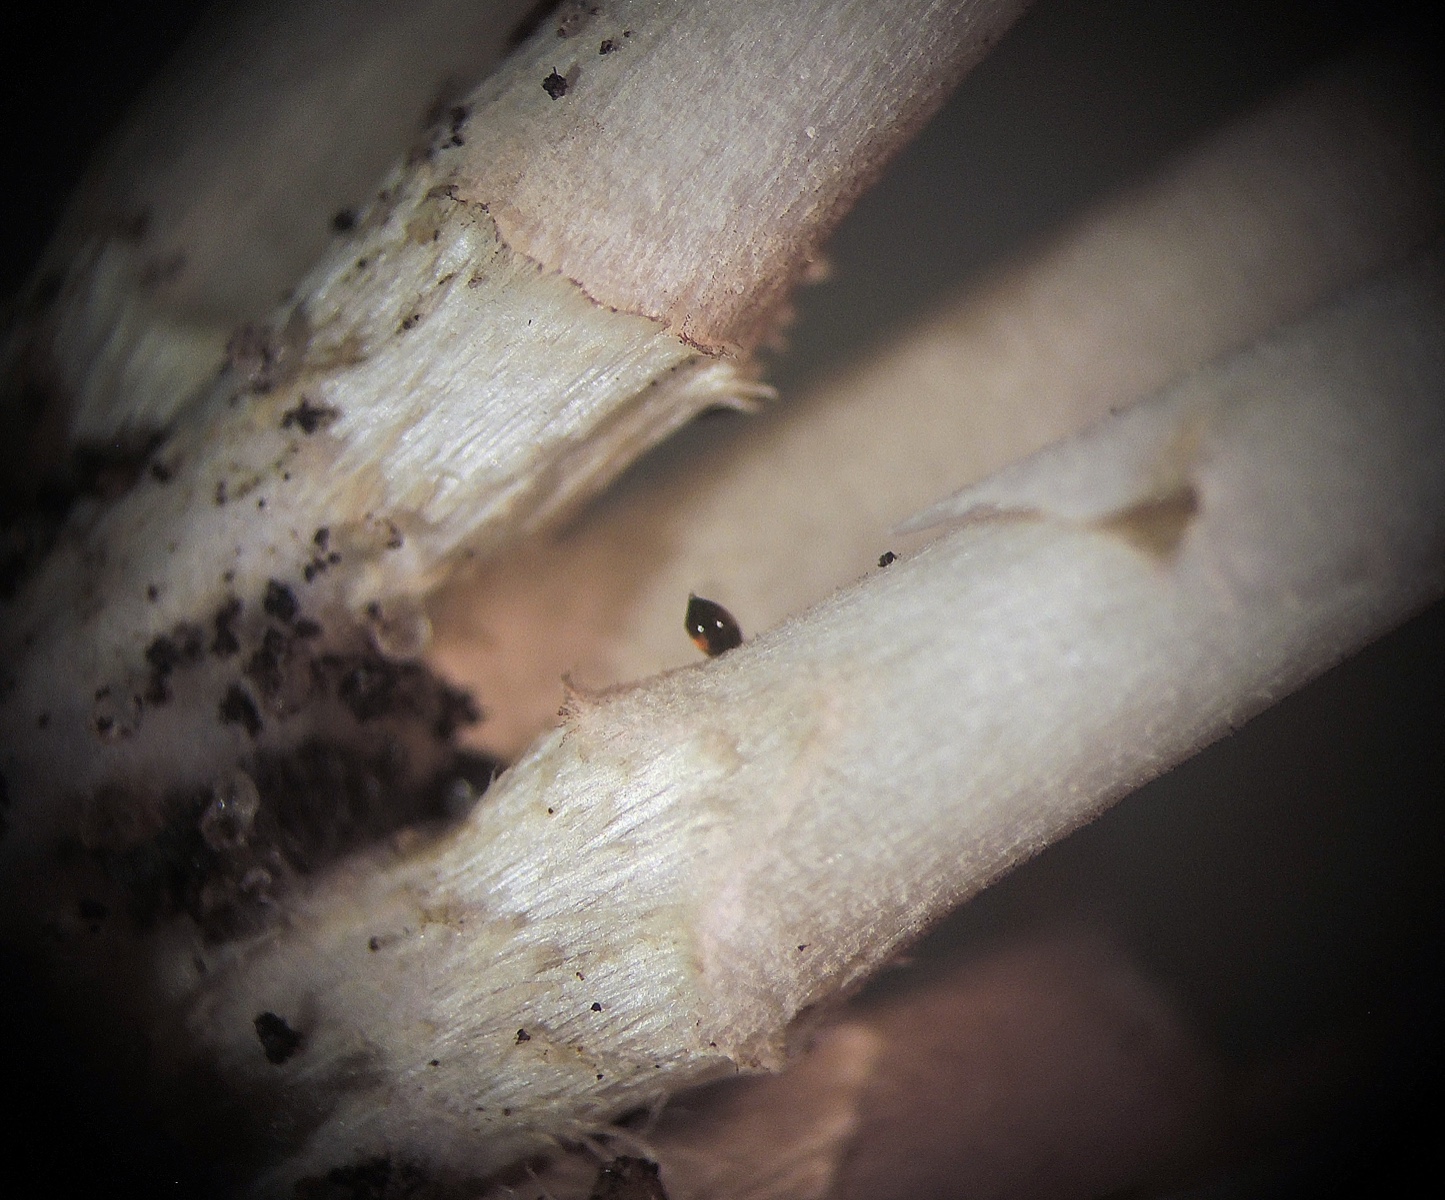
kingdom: Fungi
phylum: Basidiomycota
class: Agaricomycetes
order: Agaricales
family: Psathyrellaceae
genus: Britzelmayria
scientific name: Britzelmayria multipedata
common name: knippe-mørkhat
